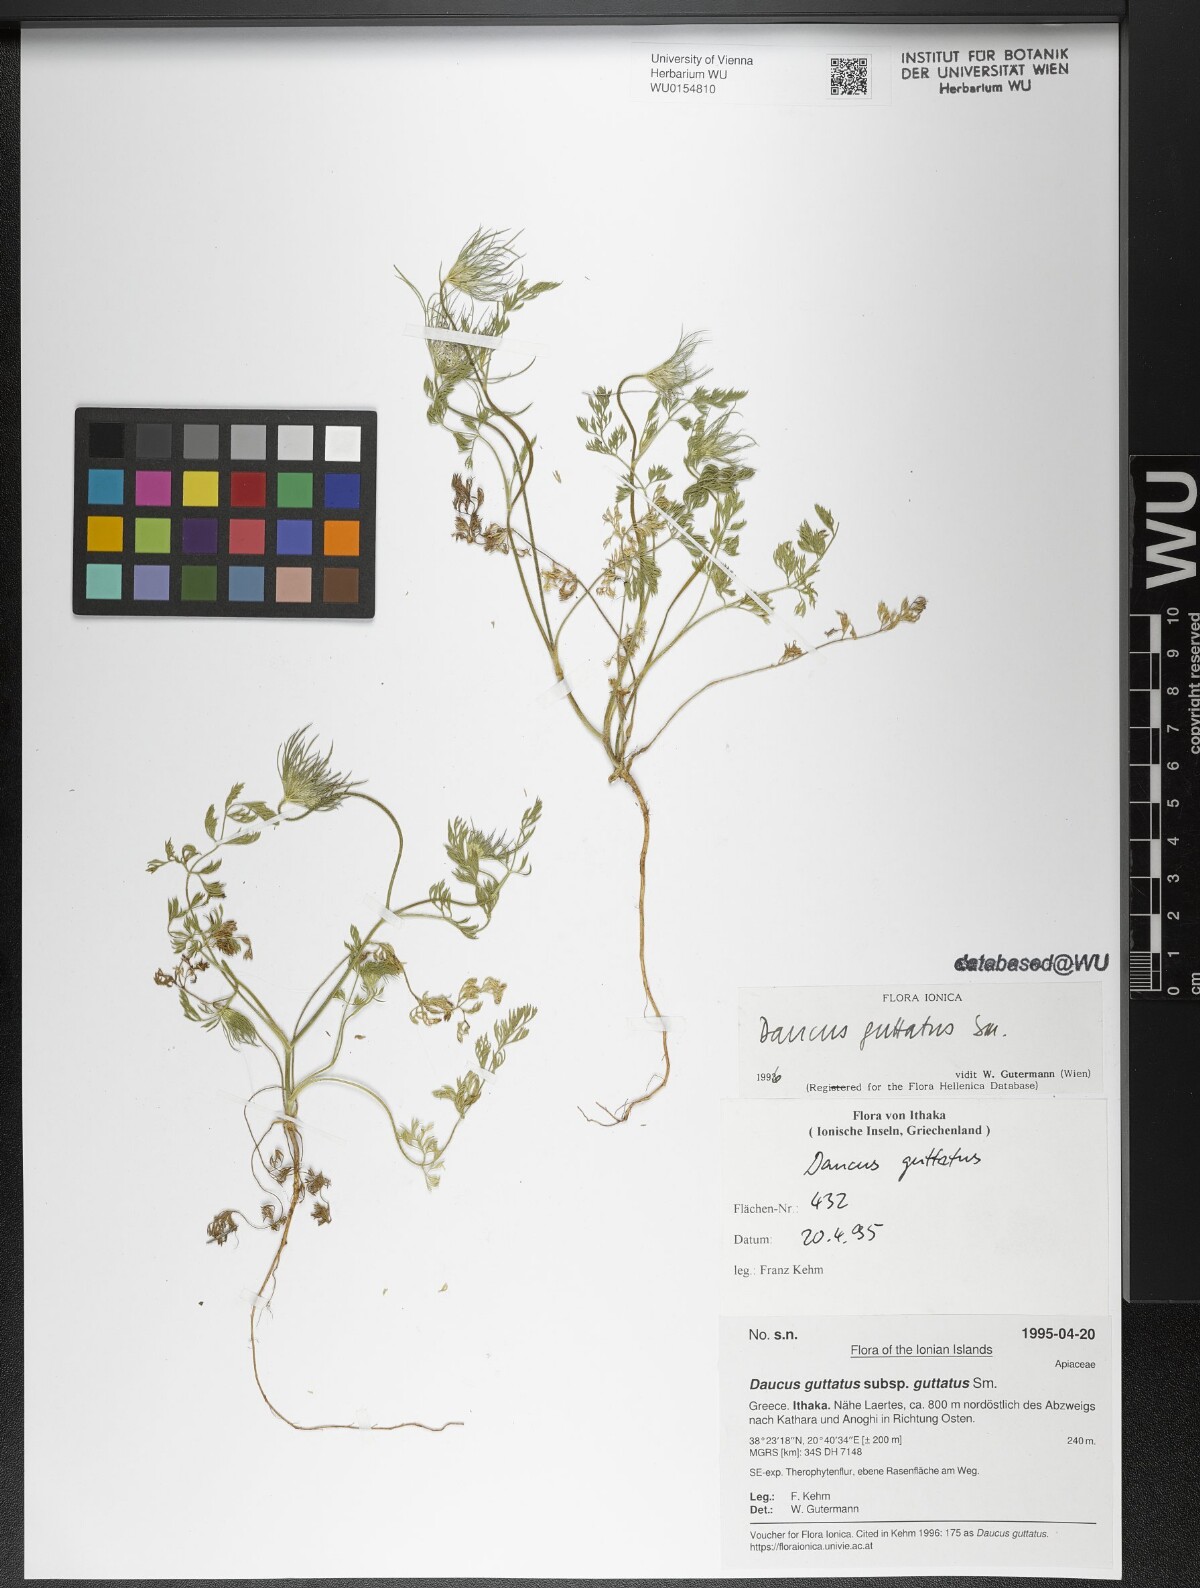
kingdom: Plantae
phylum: Tracheophyta
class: Magnoliopsida
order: Apiales
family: Apiaceae
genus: Daucus
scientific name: Daucus guttatus
